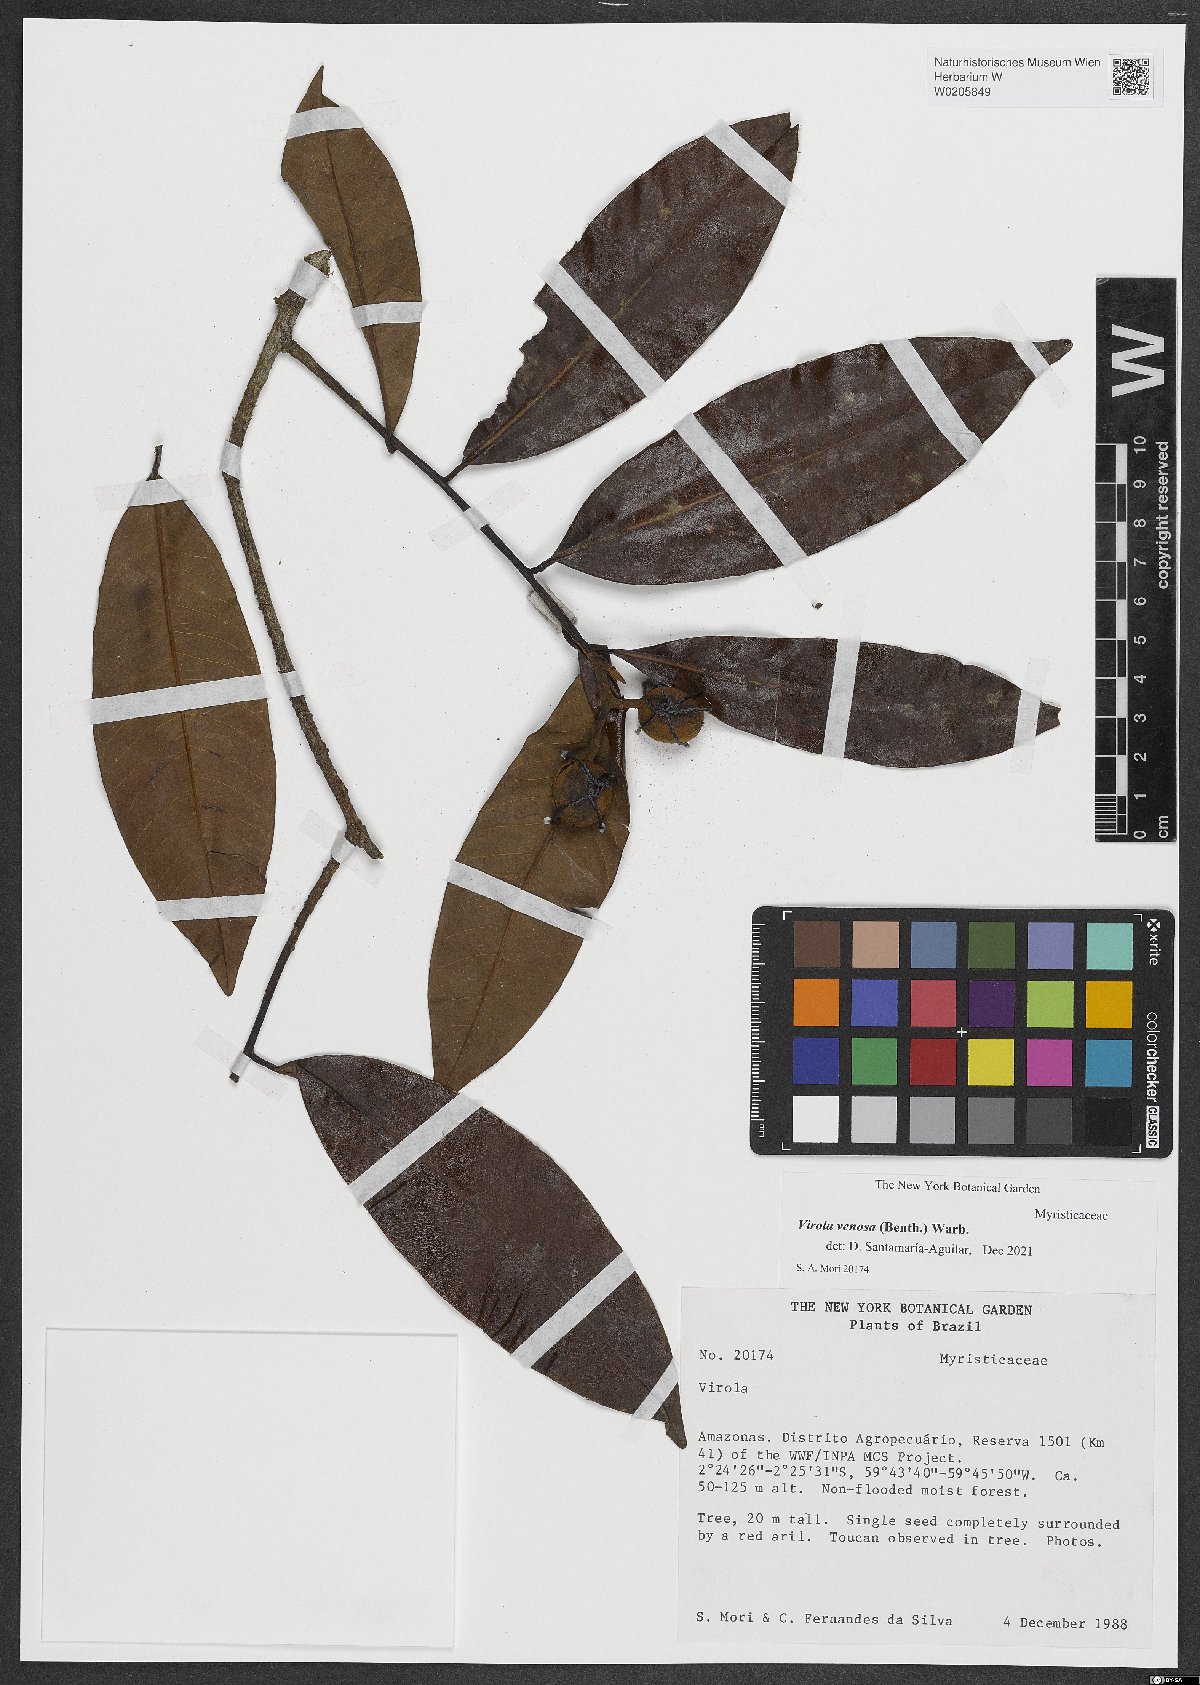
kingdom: Plantae
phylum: Tracheophyta
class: Magnoliopsida
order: Magnoliales
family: Myristicaceae
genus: Virola
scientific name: Virola venosa
